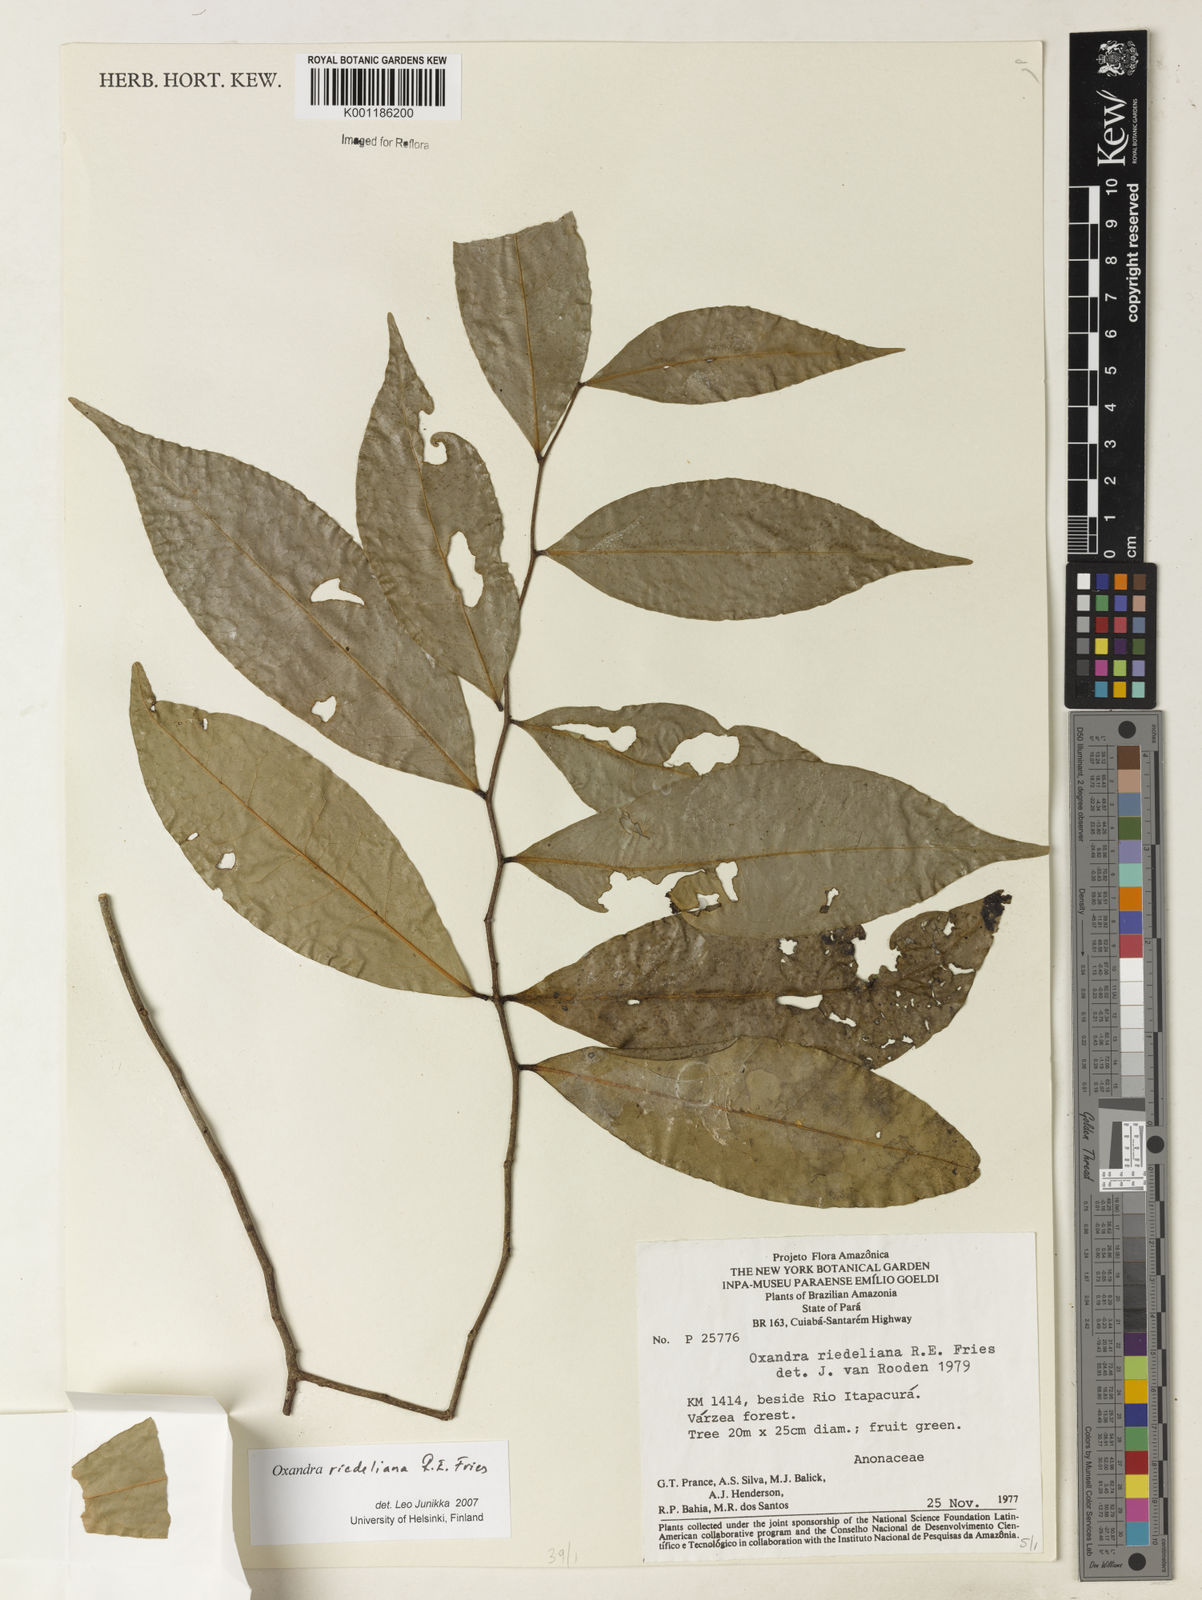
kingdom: Plantae
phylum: Tracheophyta
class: Magnoliopsida
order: Magnoliales
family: Annonaceae
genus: Oxandra
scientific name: Oxandra riedeliana
